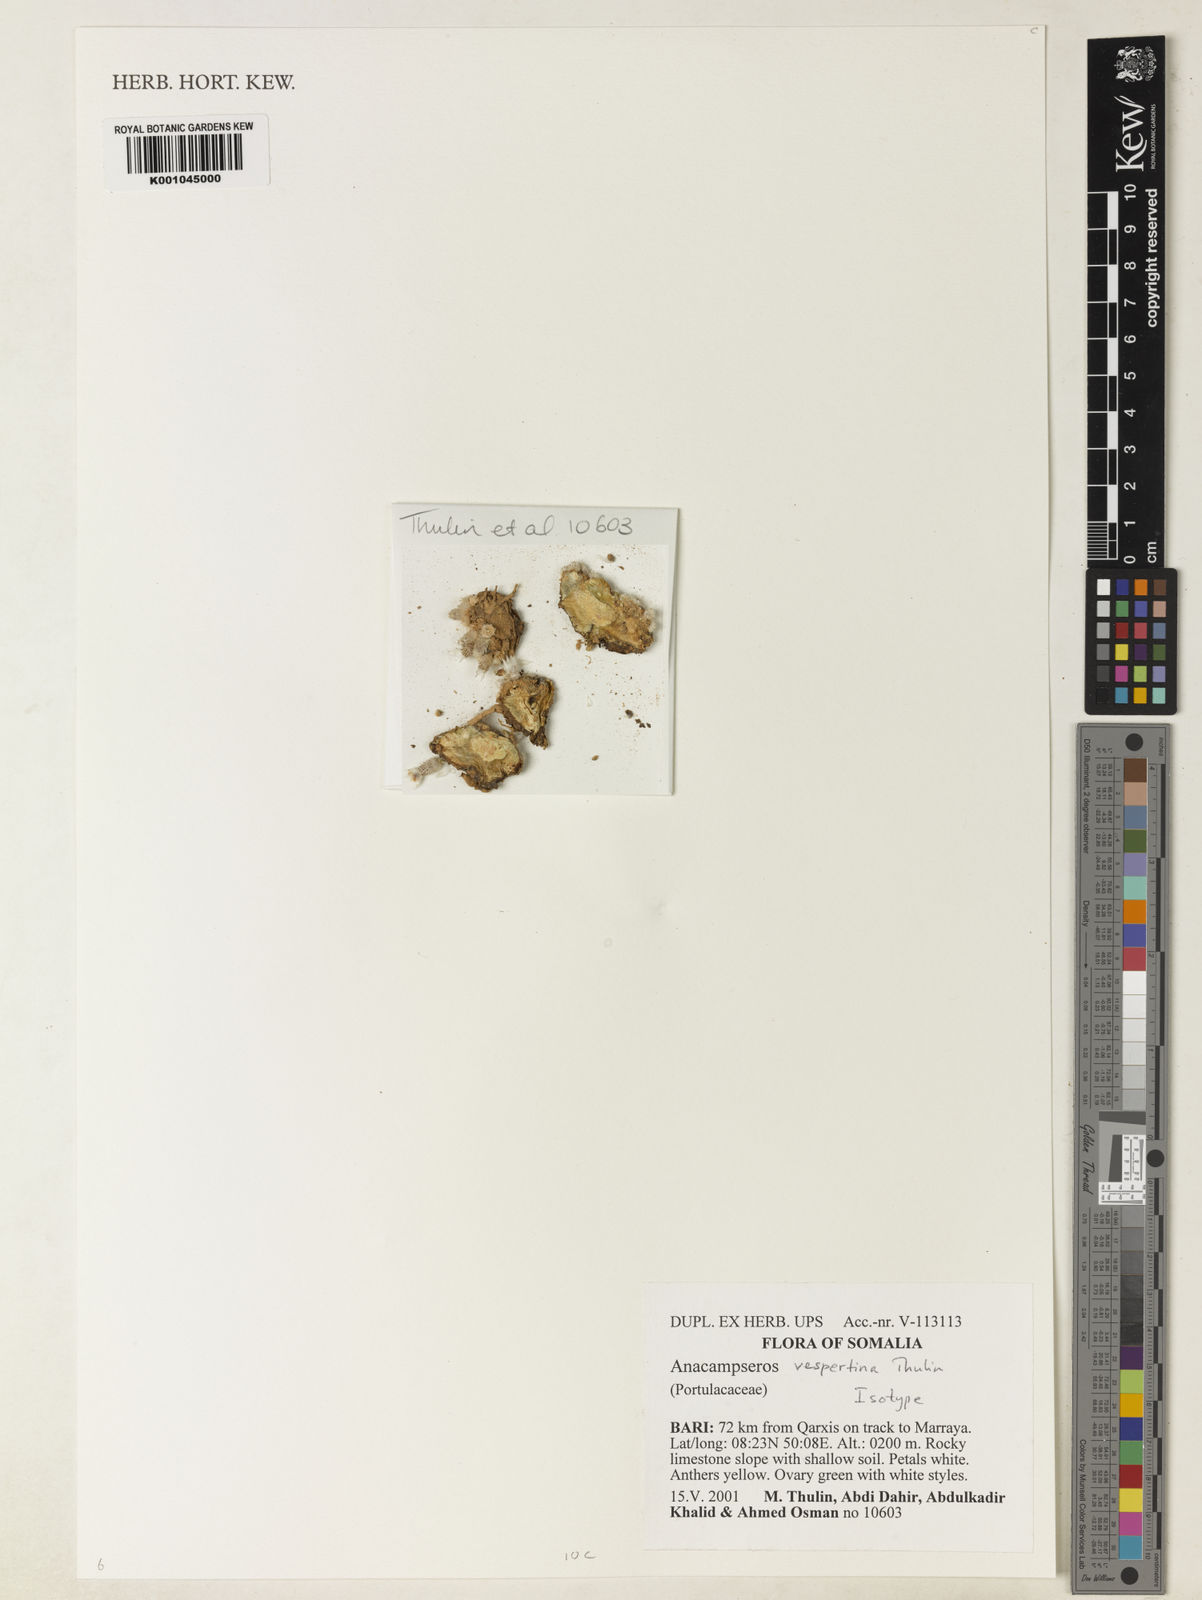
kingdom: Plantae
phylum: Tracheophyta
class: Magnoliopsida
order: Caryophyllales
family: Anacampserotaceae
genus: Anacampseros
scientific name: Anacampseros vespertina
